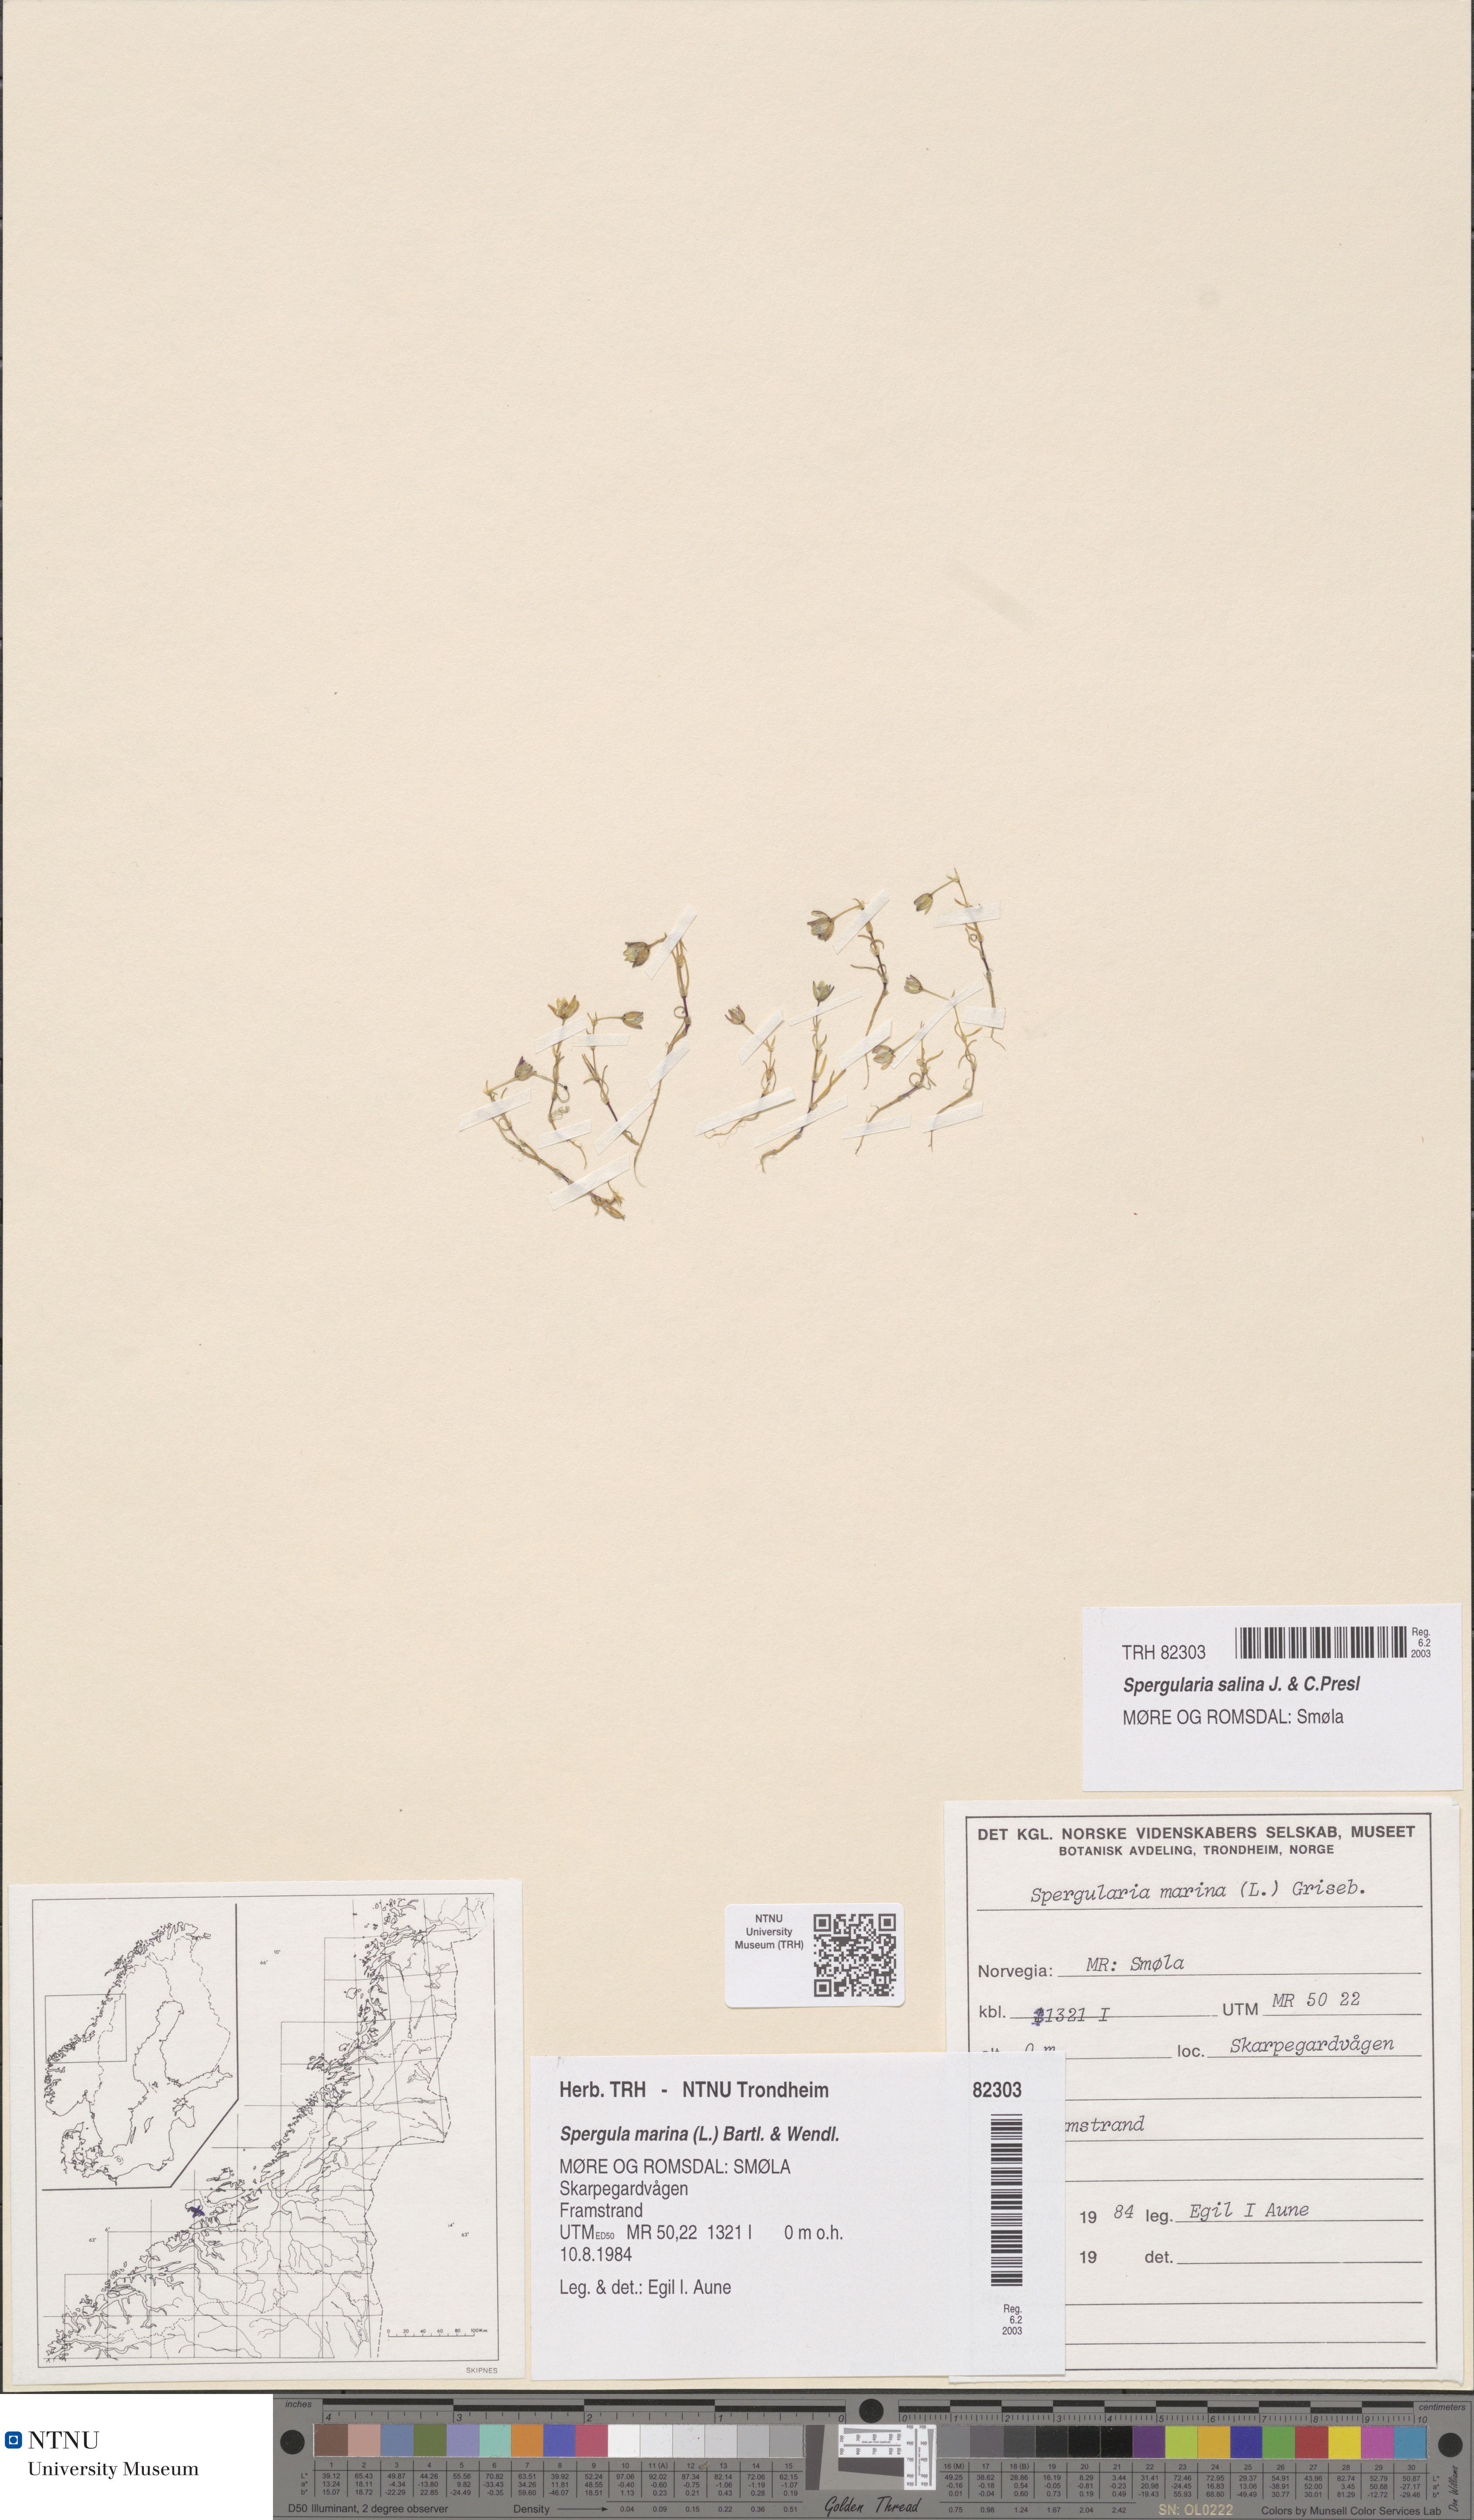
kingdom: Plantae
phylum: Tracheophyta
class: Magnoliopsida
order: Caryophyllales
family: Caryophyllaceae
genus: Spergularia
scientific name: Spergularia marina
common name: Lesser sea-spurrey
